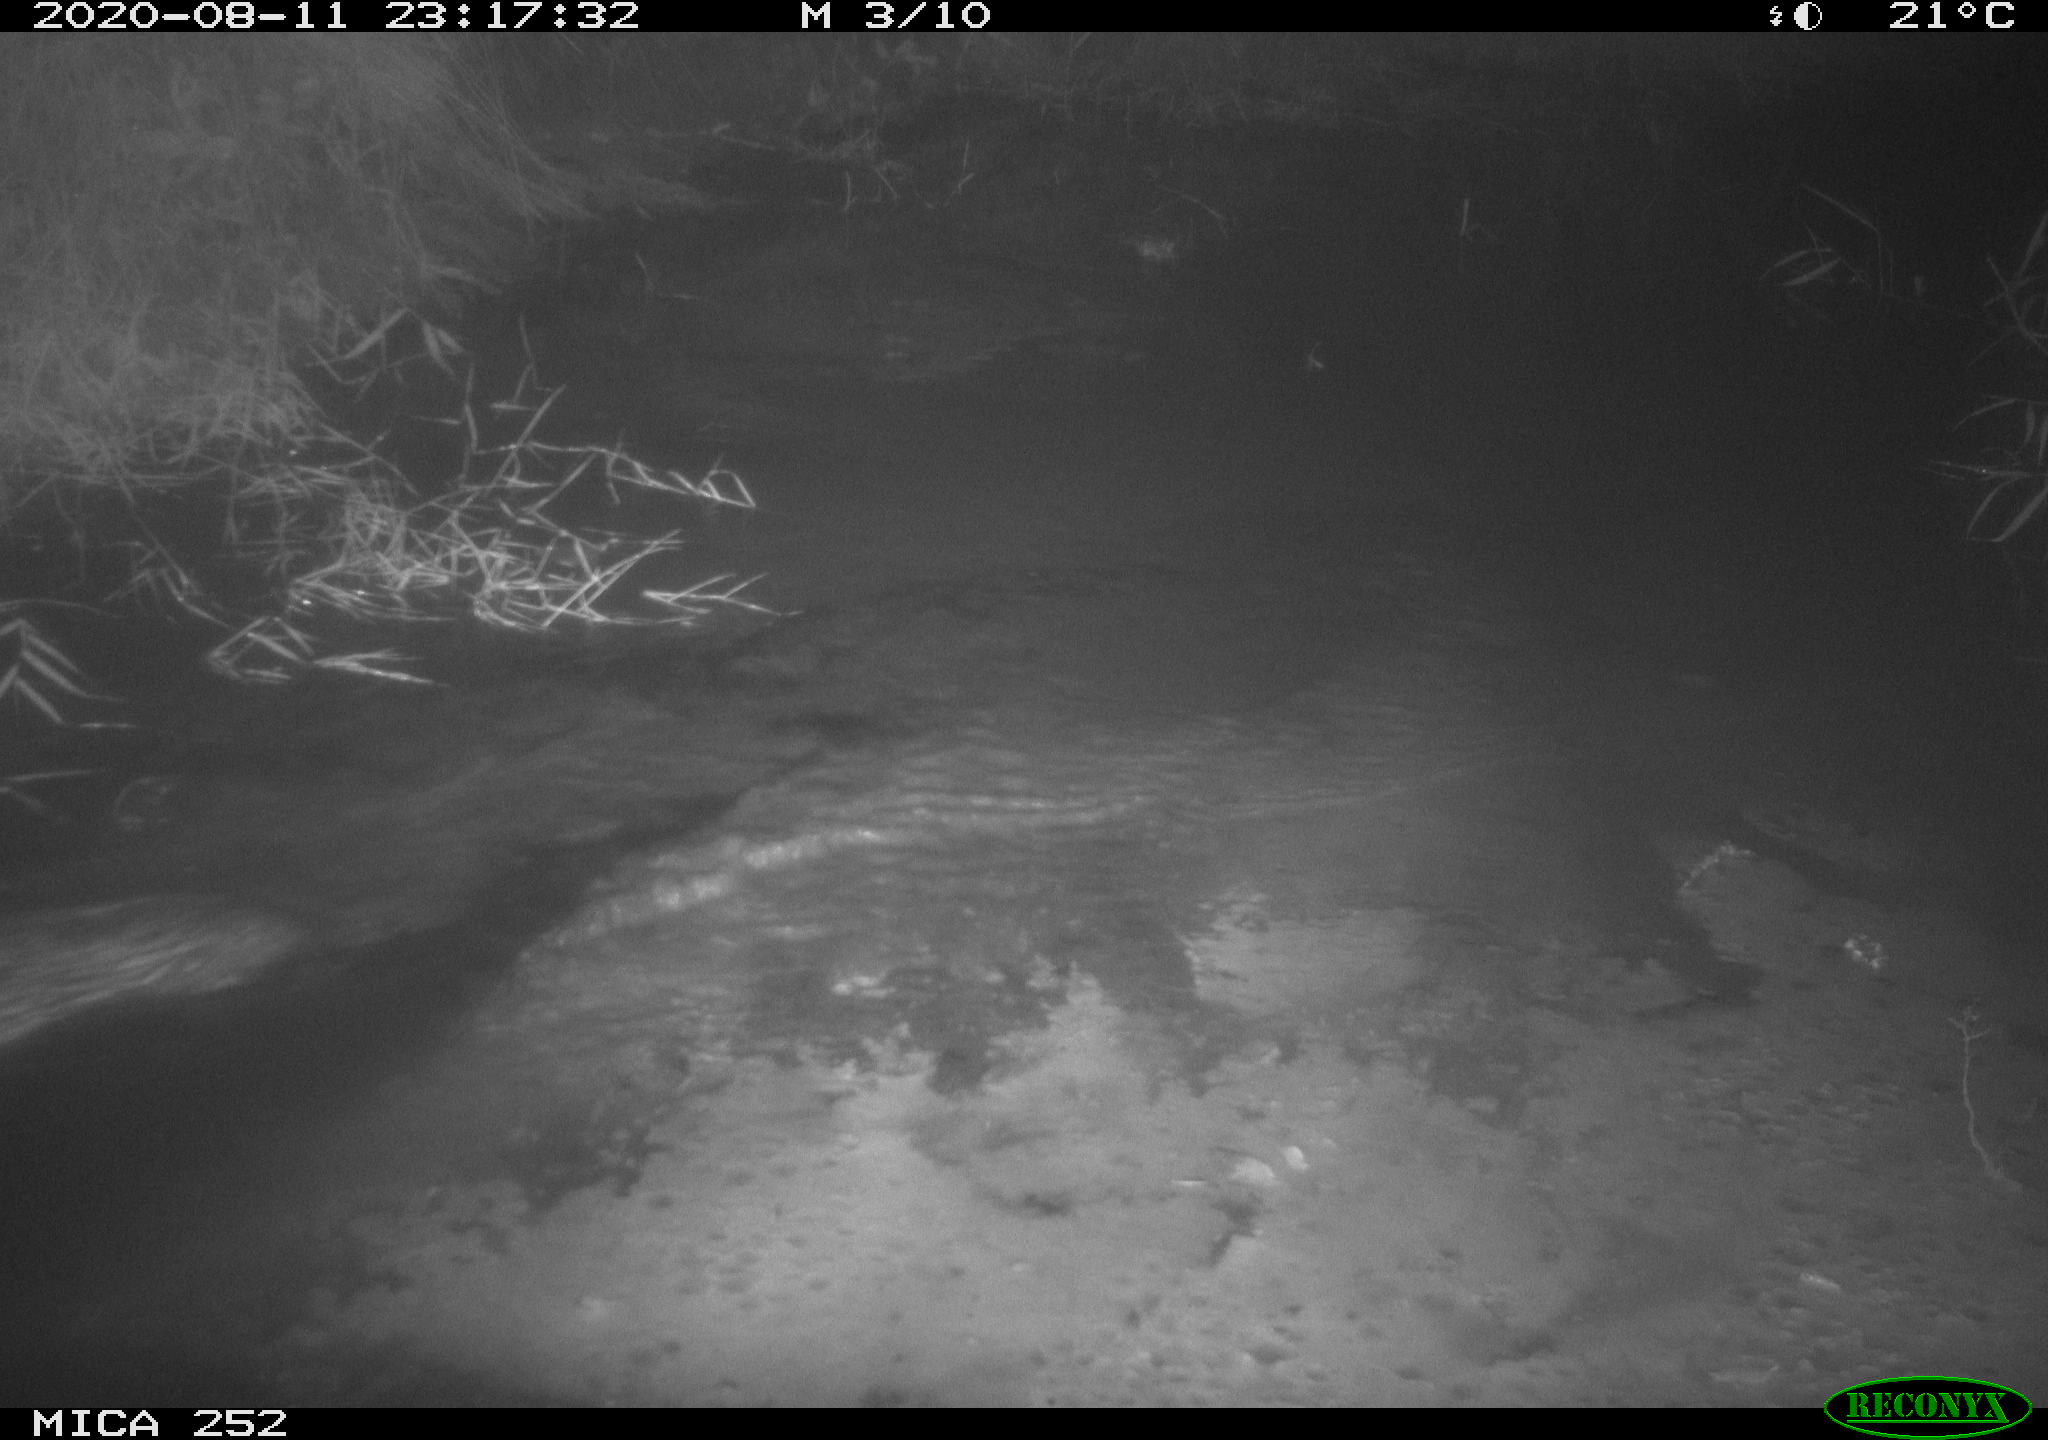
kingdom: Animalia
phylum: Chordata
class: Mammalia
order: Rodentia
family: Castoridae
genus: Castor
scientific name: Castor fiber
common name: Eurasian beaver
